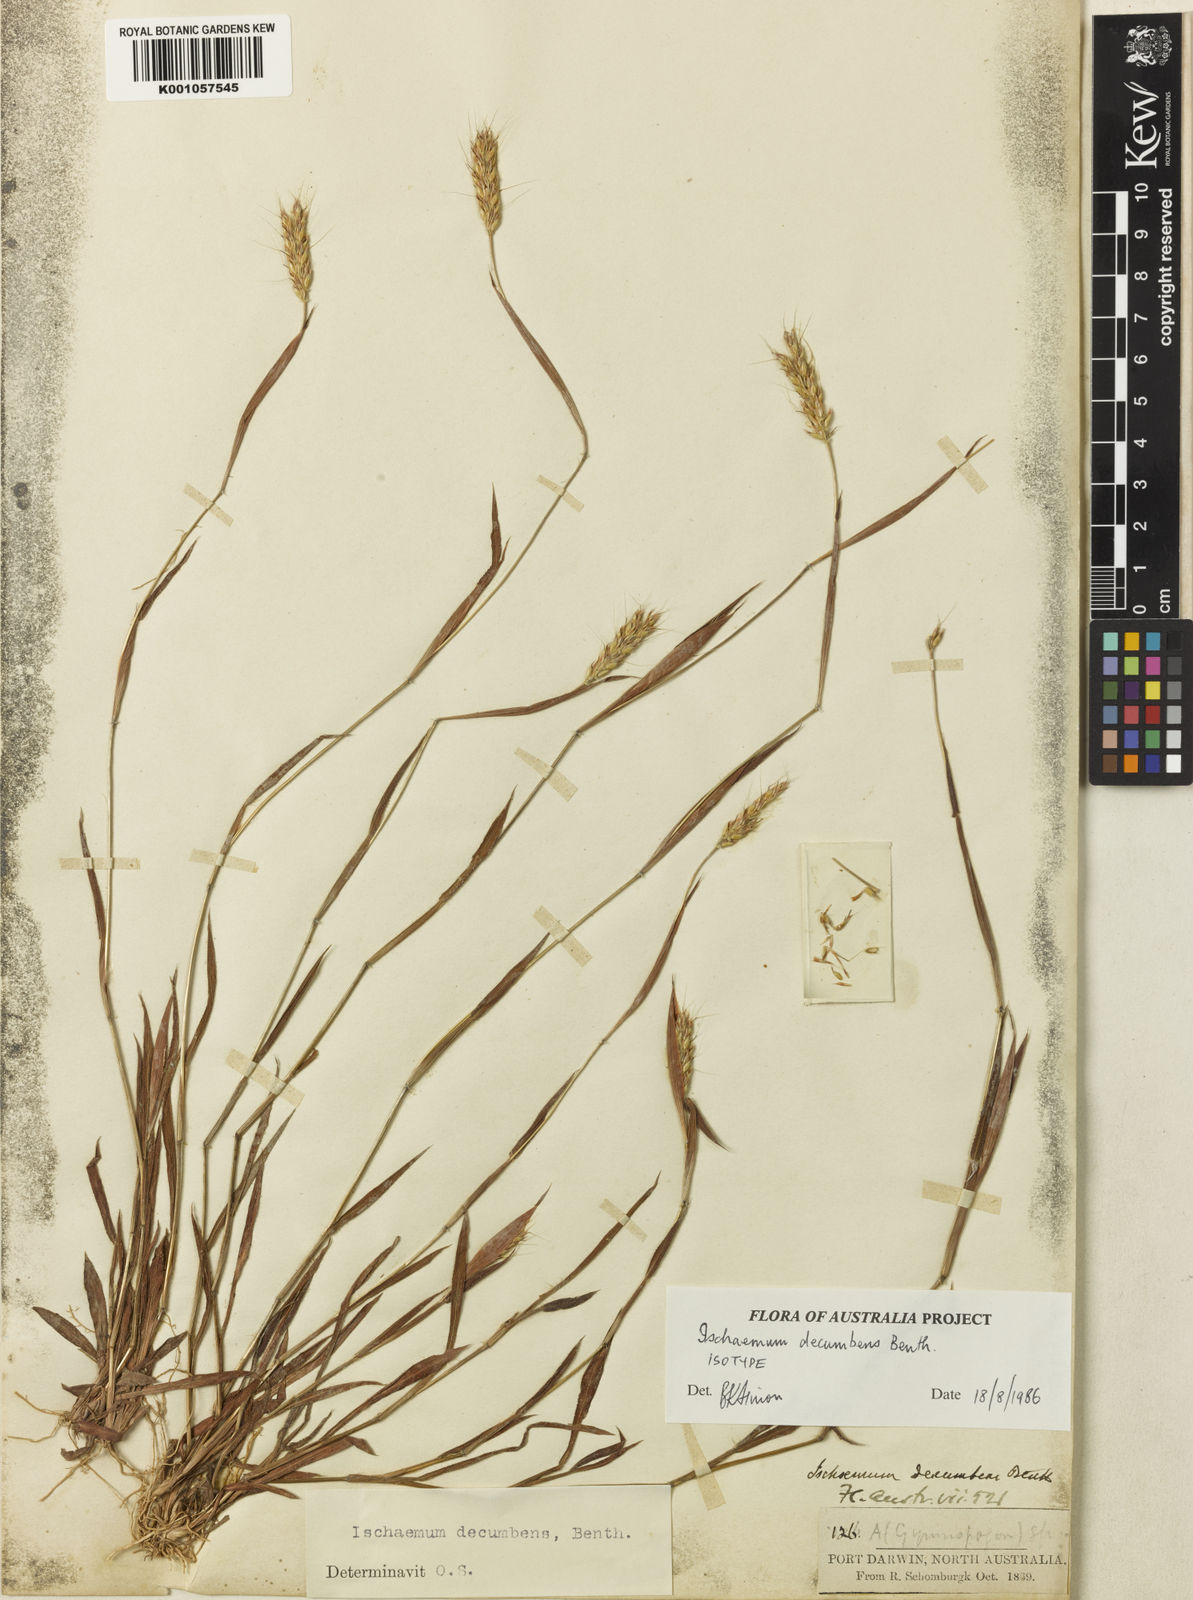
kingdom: Plantae
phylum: Tracheophyta
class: Liliopsida
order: Poales
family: Poaceae
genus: Ischaemum
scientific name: Ischaemum decumbens
